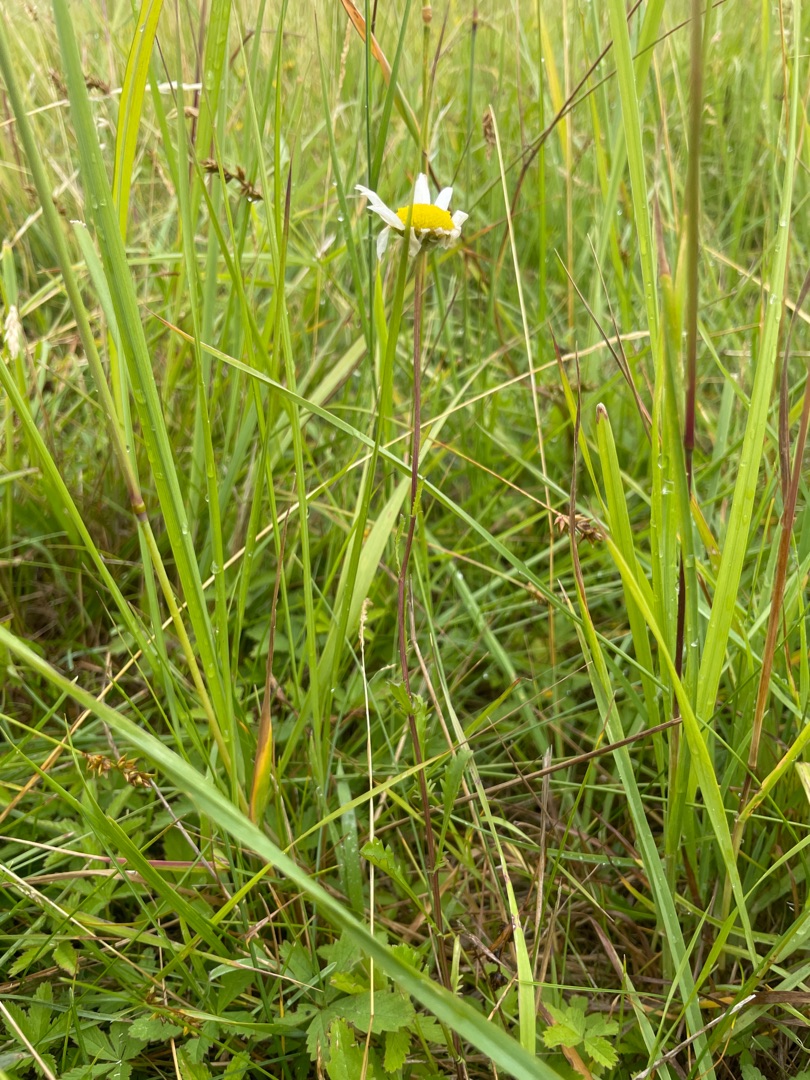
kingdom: Plantae
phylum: Tracheophyta
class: Magnoliopsida
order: Asterales
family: Asteraceae
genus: Leucanthemum
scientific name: Leucanthemum vulgare
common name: Hvid okseøje
